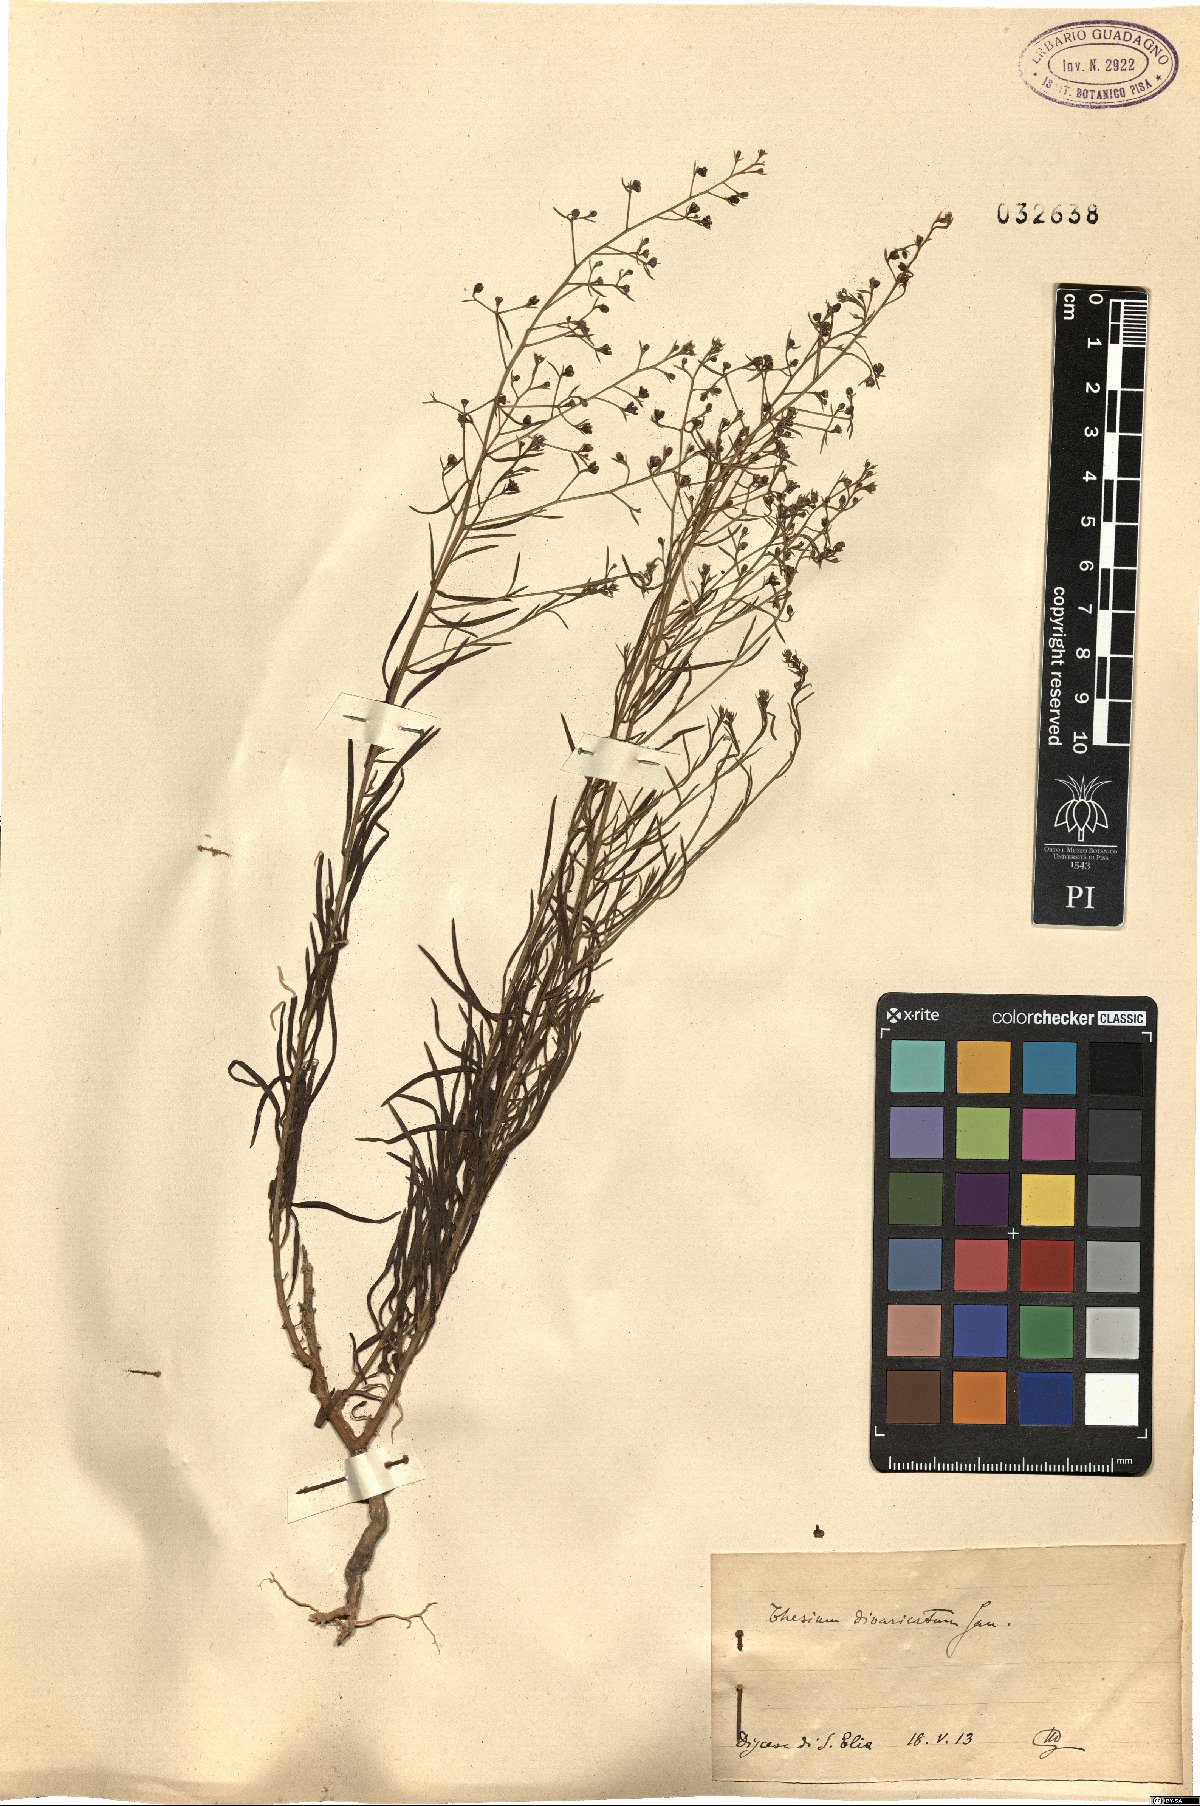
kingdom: Plantae
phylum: Tracheophyta
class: Magnoliopsida
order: Santalales
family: Thesiaceae
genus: Thesium
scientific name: Thesium divaricatum
